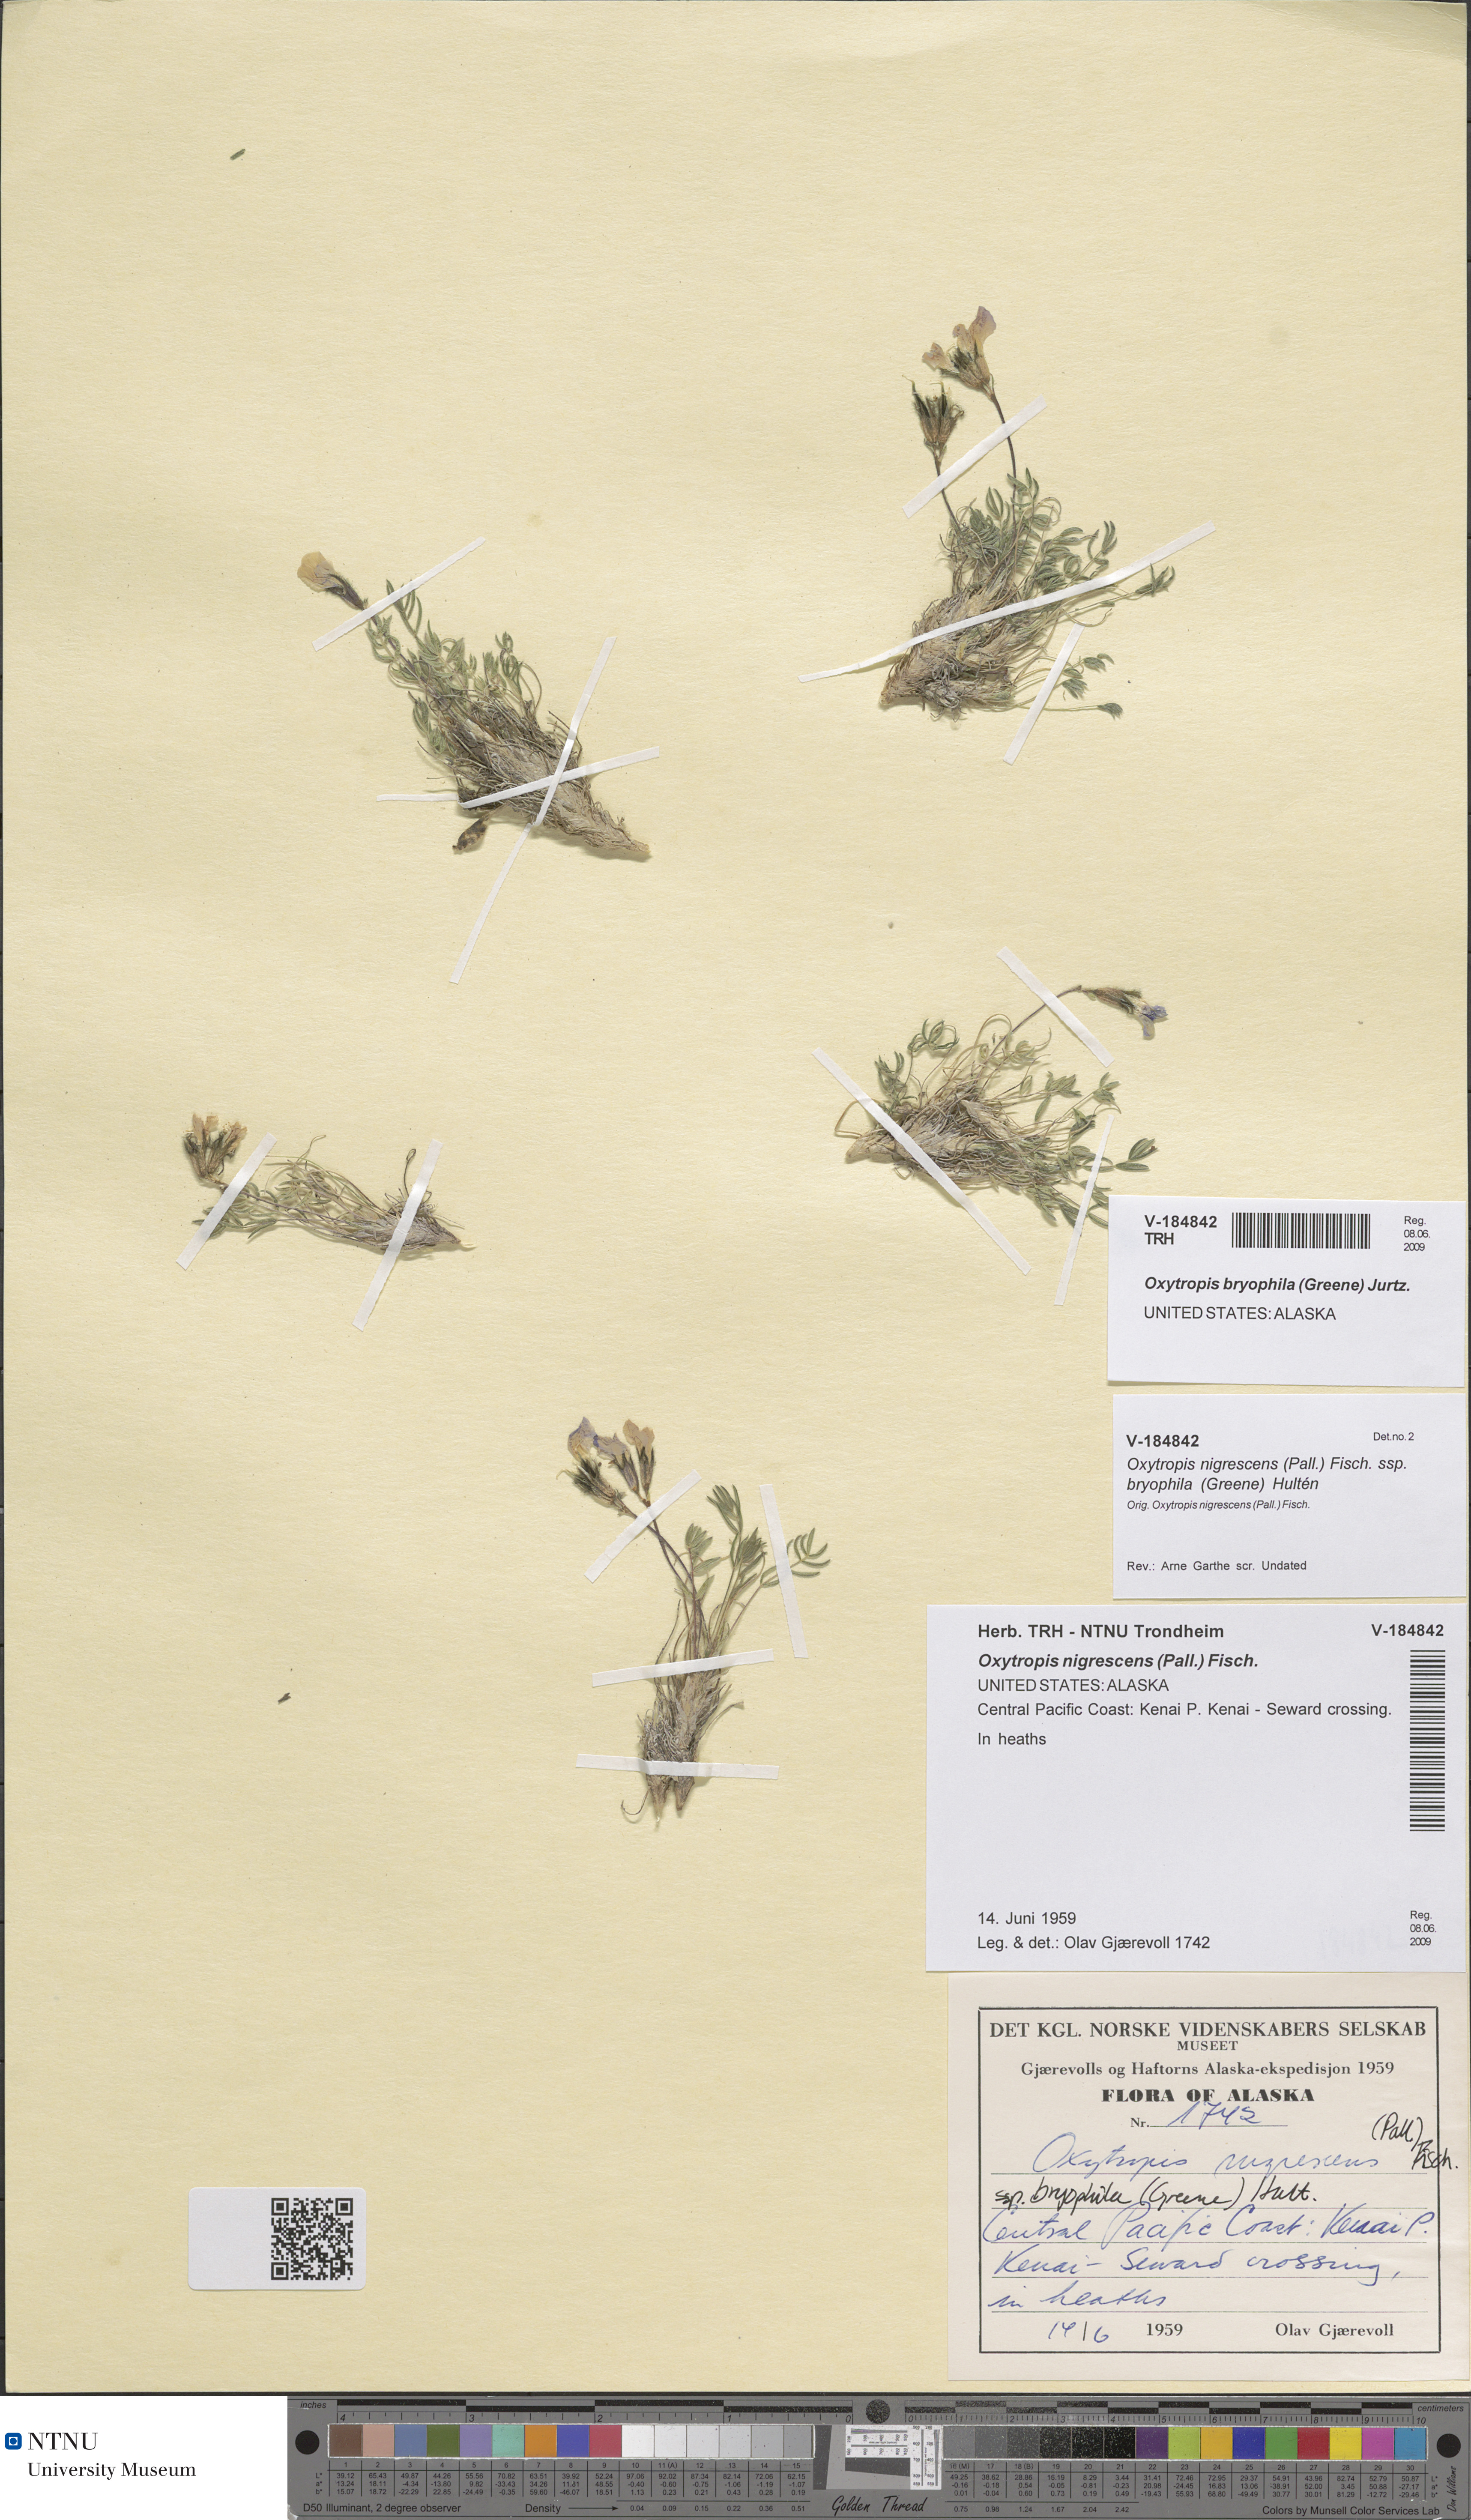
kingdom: Plantae
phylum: Tracheophyta
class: Magnoliopsida
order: Fabales
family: Fabaceae
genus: Oxytropis
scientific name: Oxytropis bryophila
